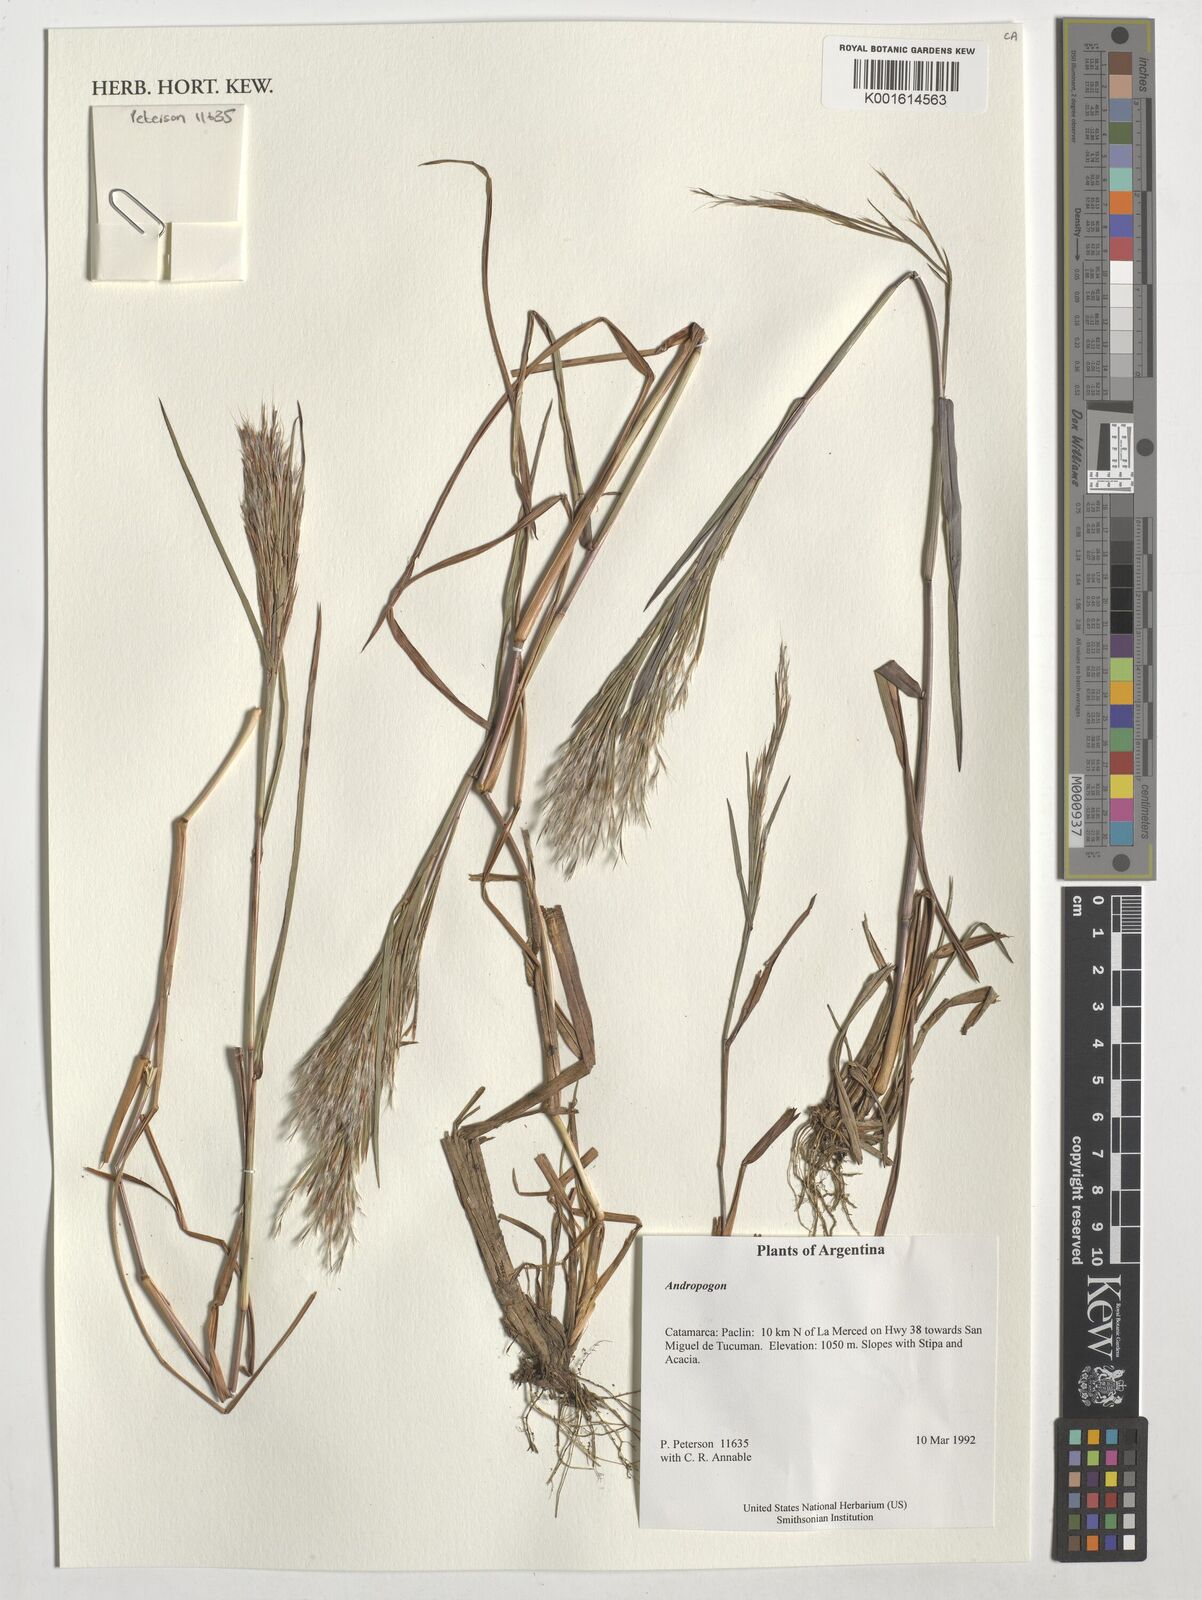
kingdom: Plantae
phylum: Tracheophyta
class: Liliopsida
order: Poales
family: Poaceae
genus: Andropogon
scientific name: Andropogon
